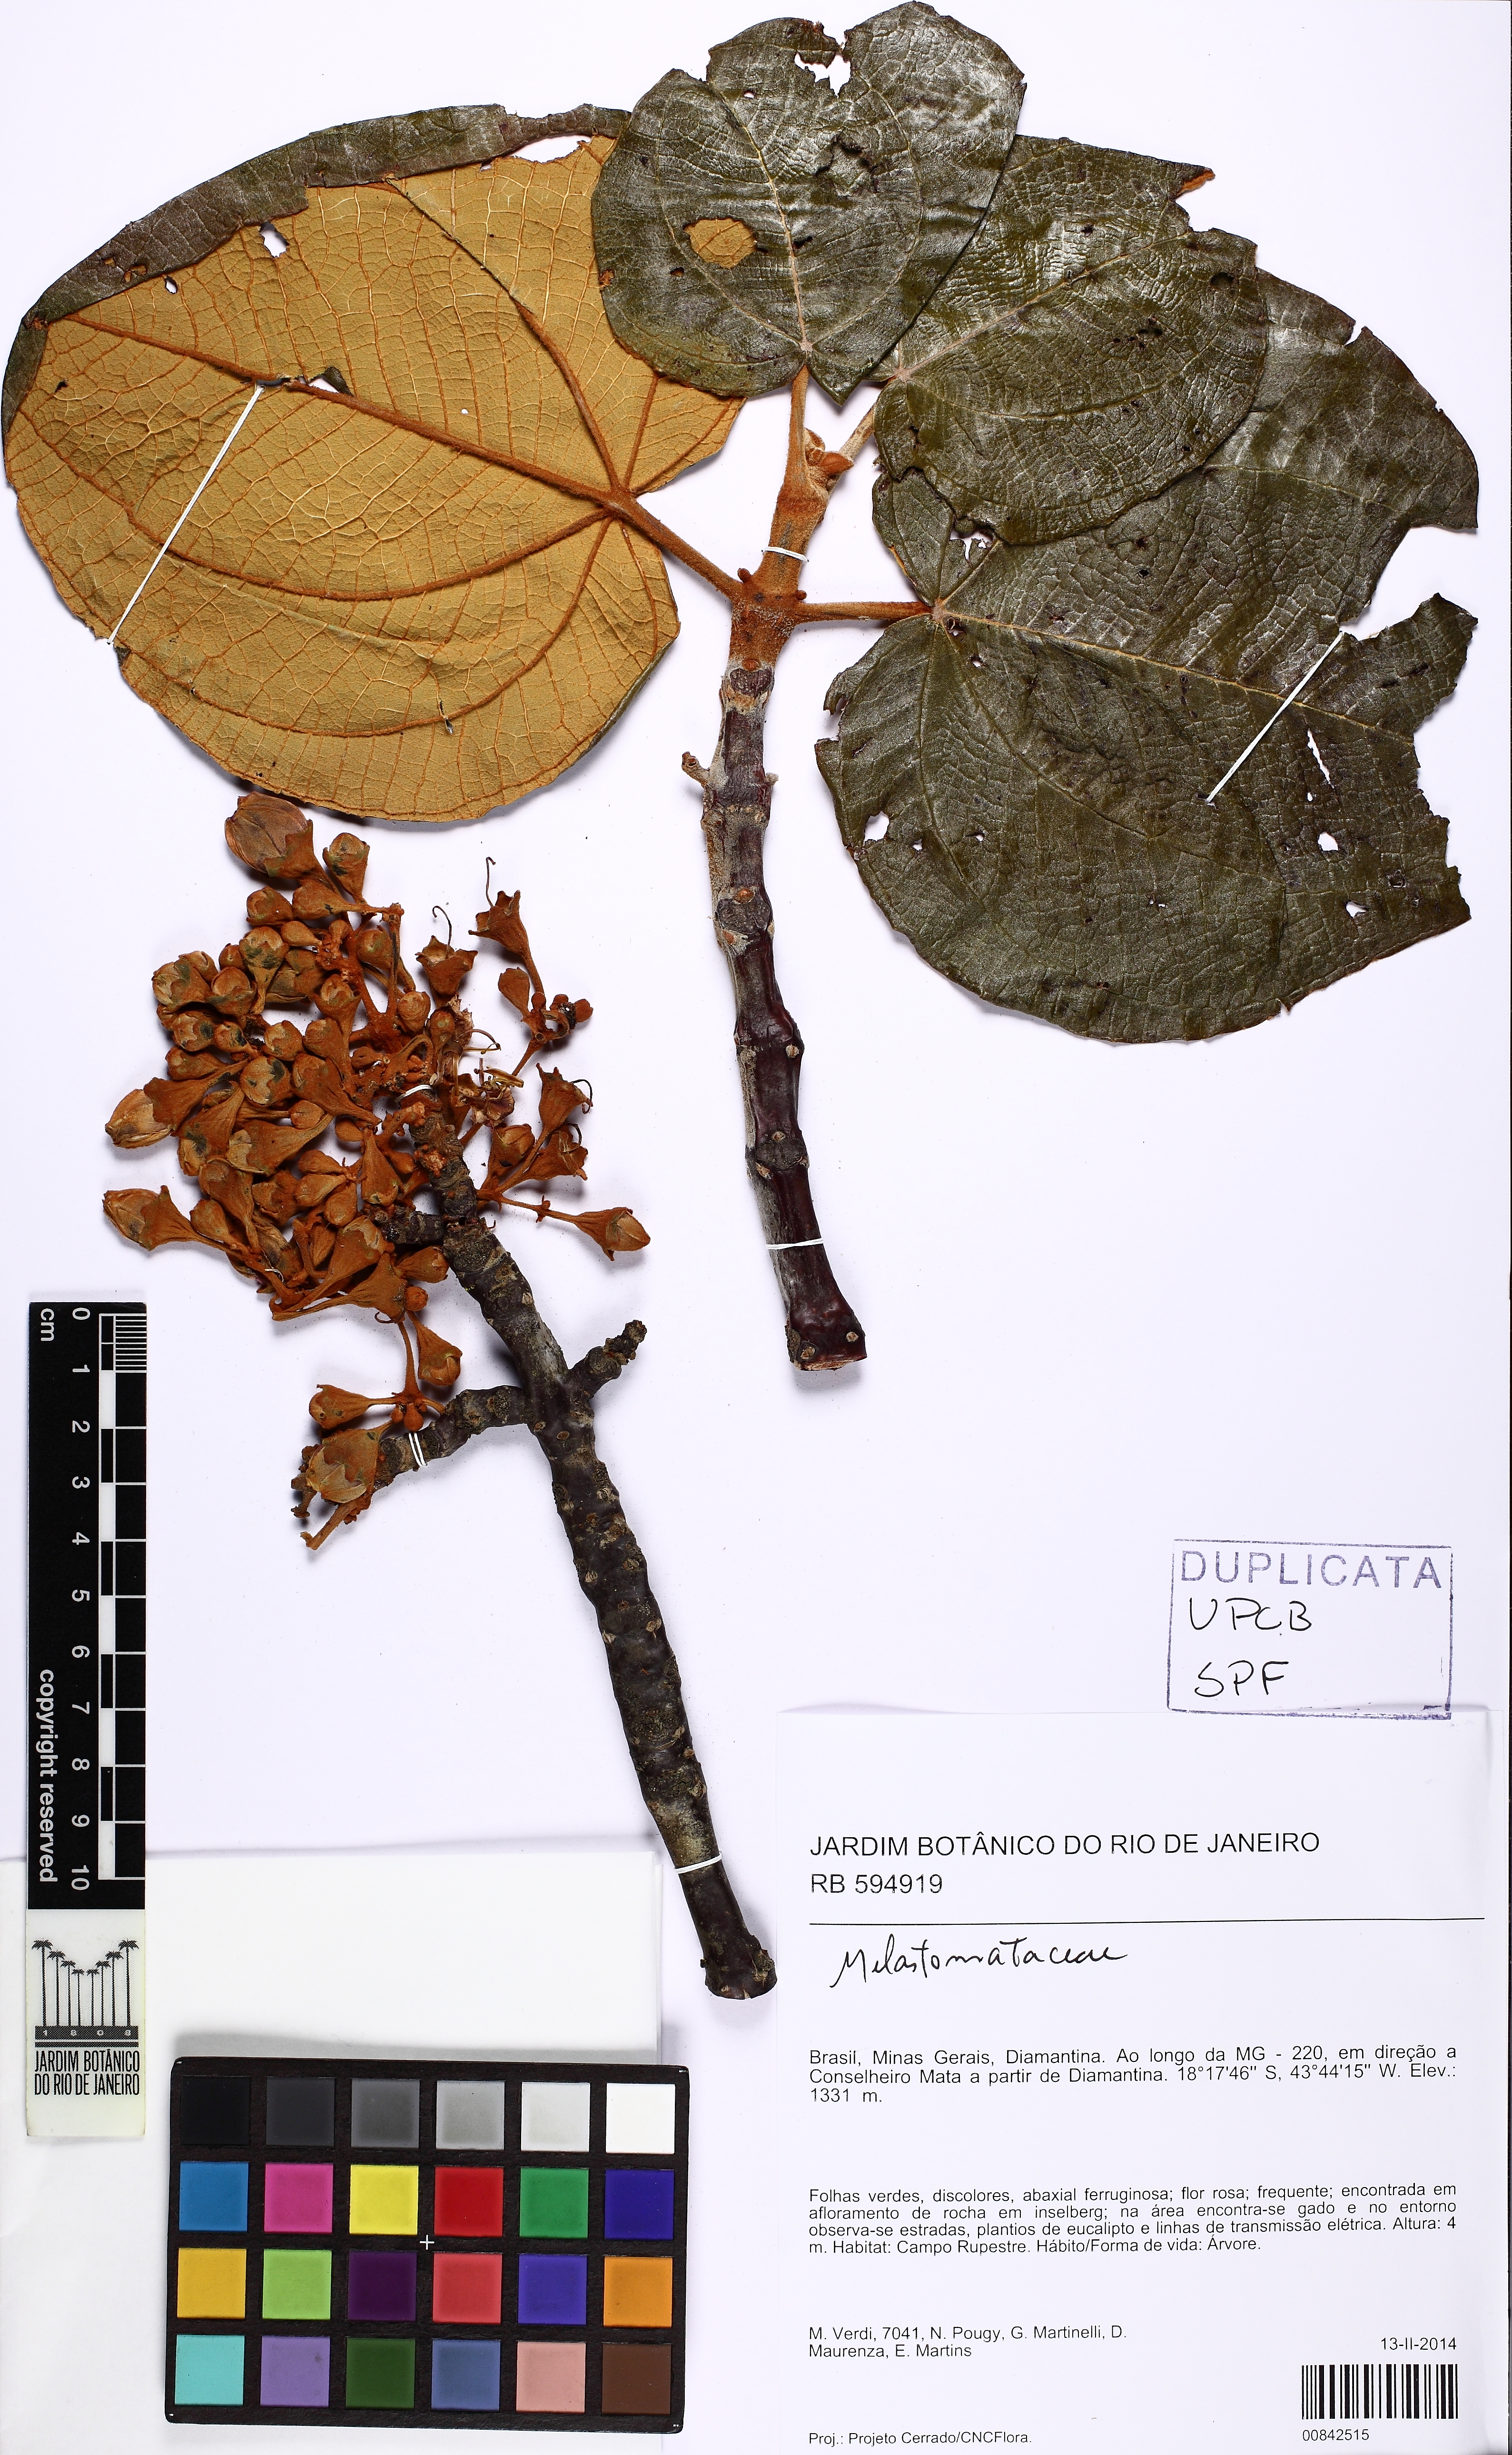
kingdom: Plantae
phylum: Tracheophyta
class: Magnoliopsida
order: Myrtales
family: Melastomataceae
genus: Merianthera
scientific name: Merianthera sipolisii
